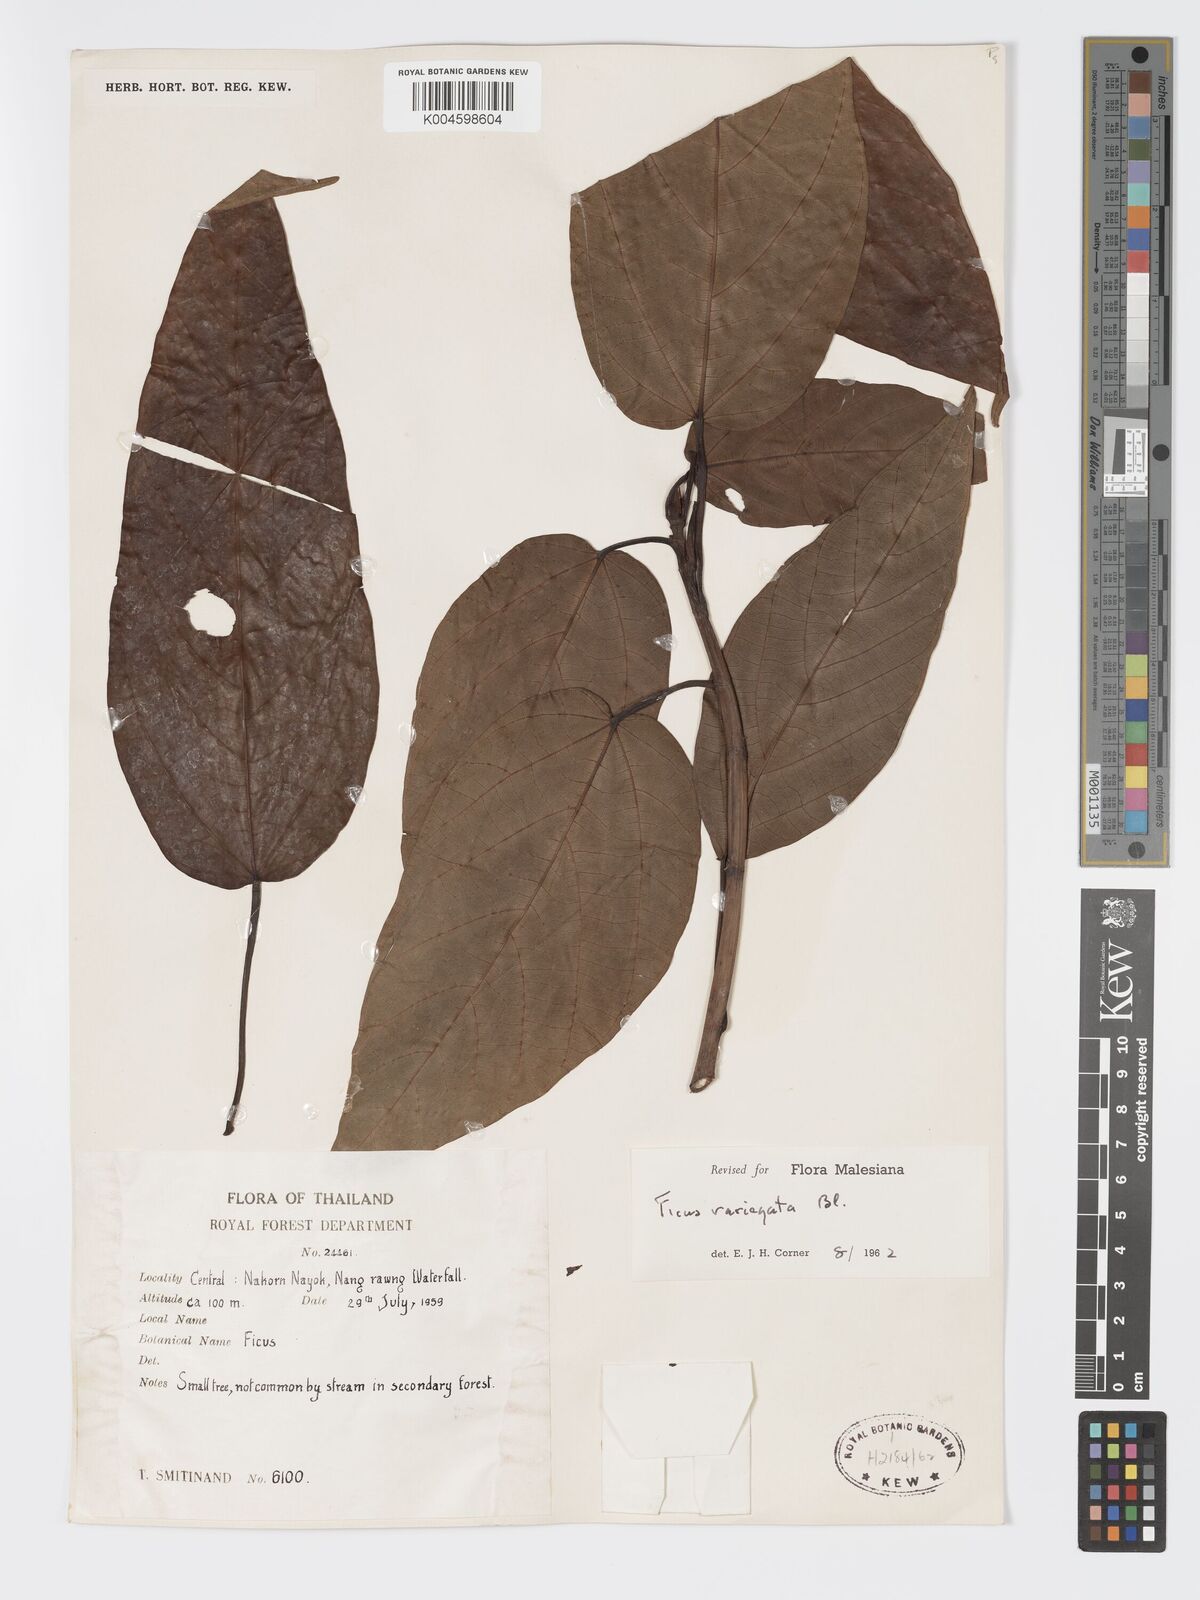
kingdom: Plantae
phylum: Tracheophyta
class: Magnoliopsida
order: Rosales
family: Moraceae
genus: Ficus
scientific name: Ficus variegata
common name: Variegated fig
